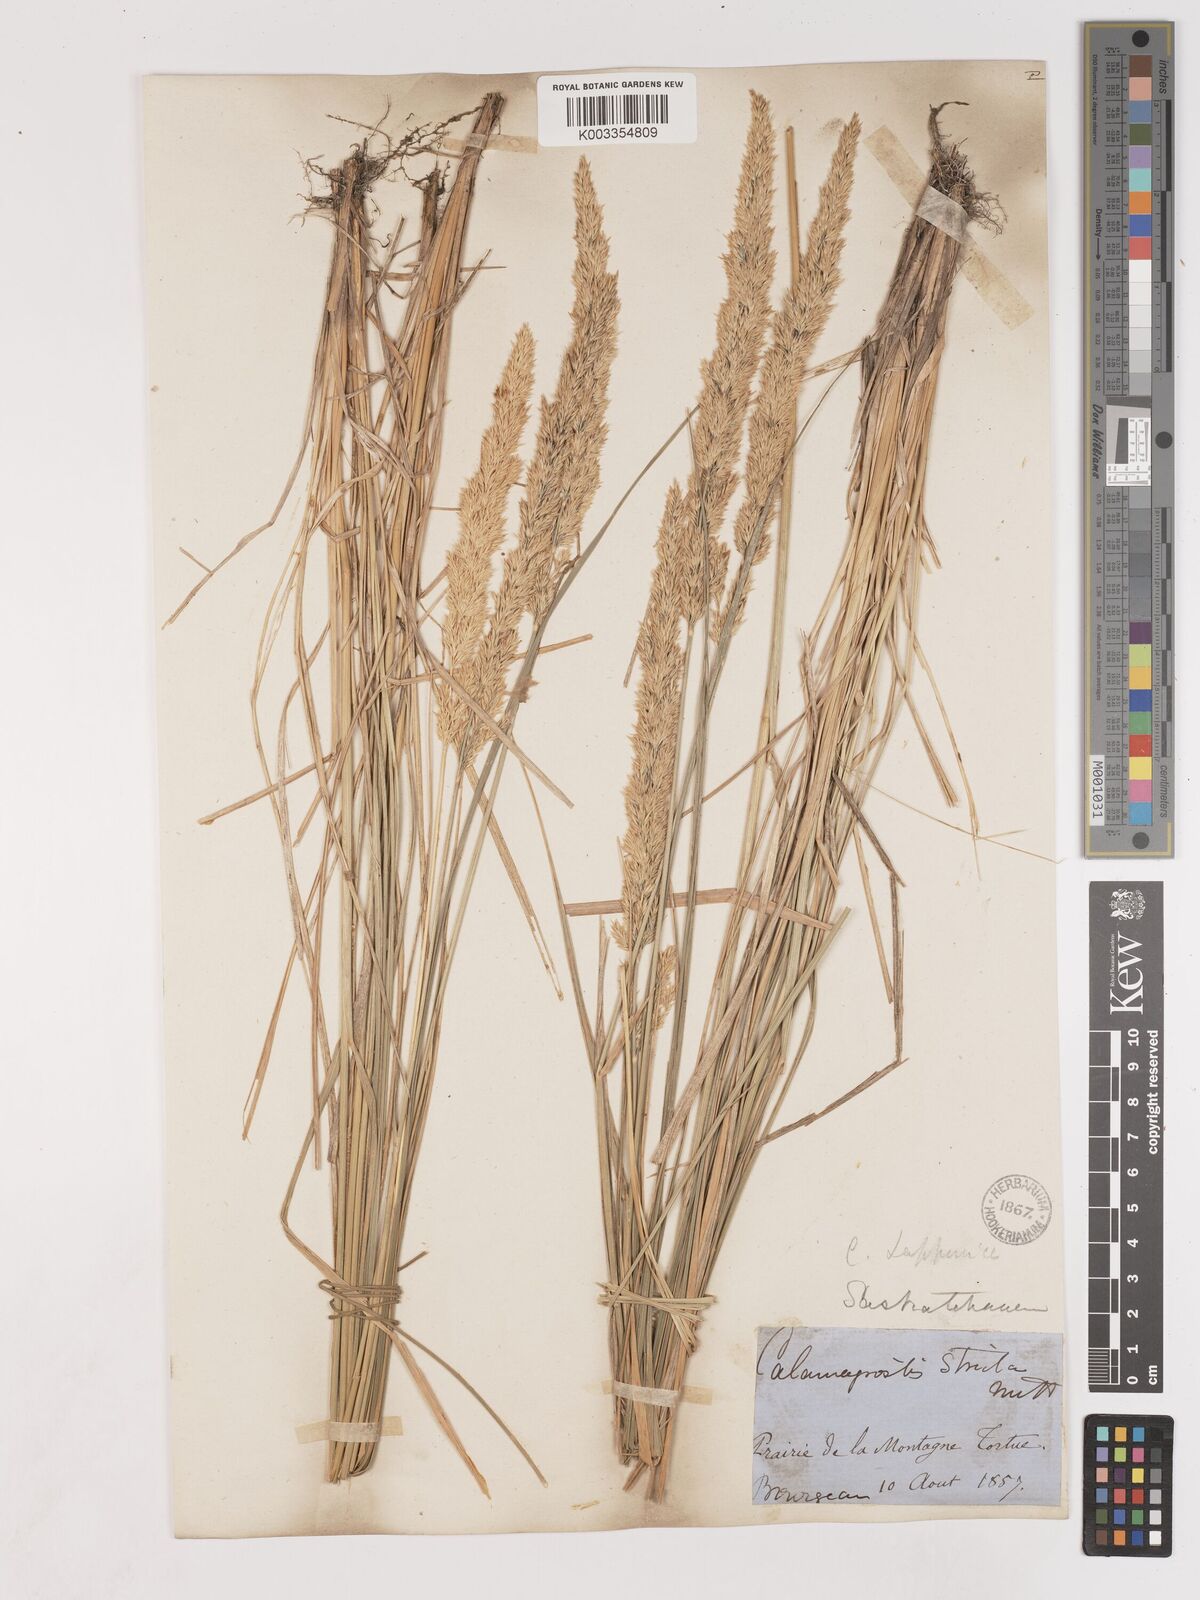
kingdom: Plantae
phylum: Tracheophyta
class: Liliopsida
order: Poales
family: Poaceae
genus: Calamagrostis
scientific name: Calamagrostis
